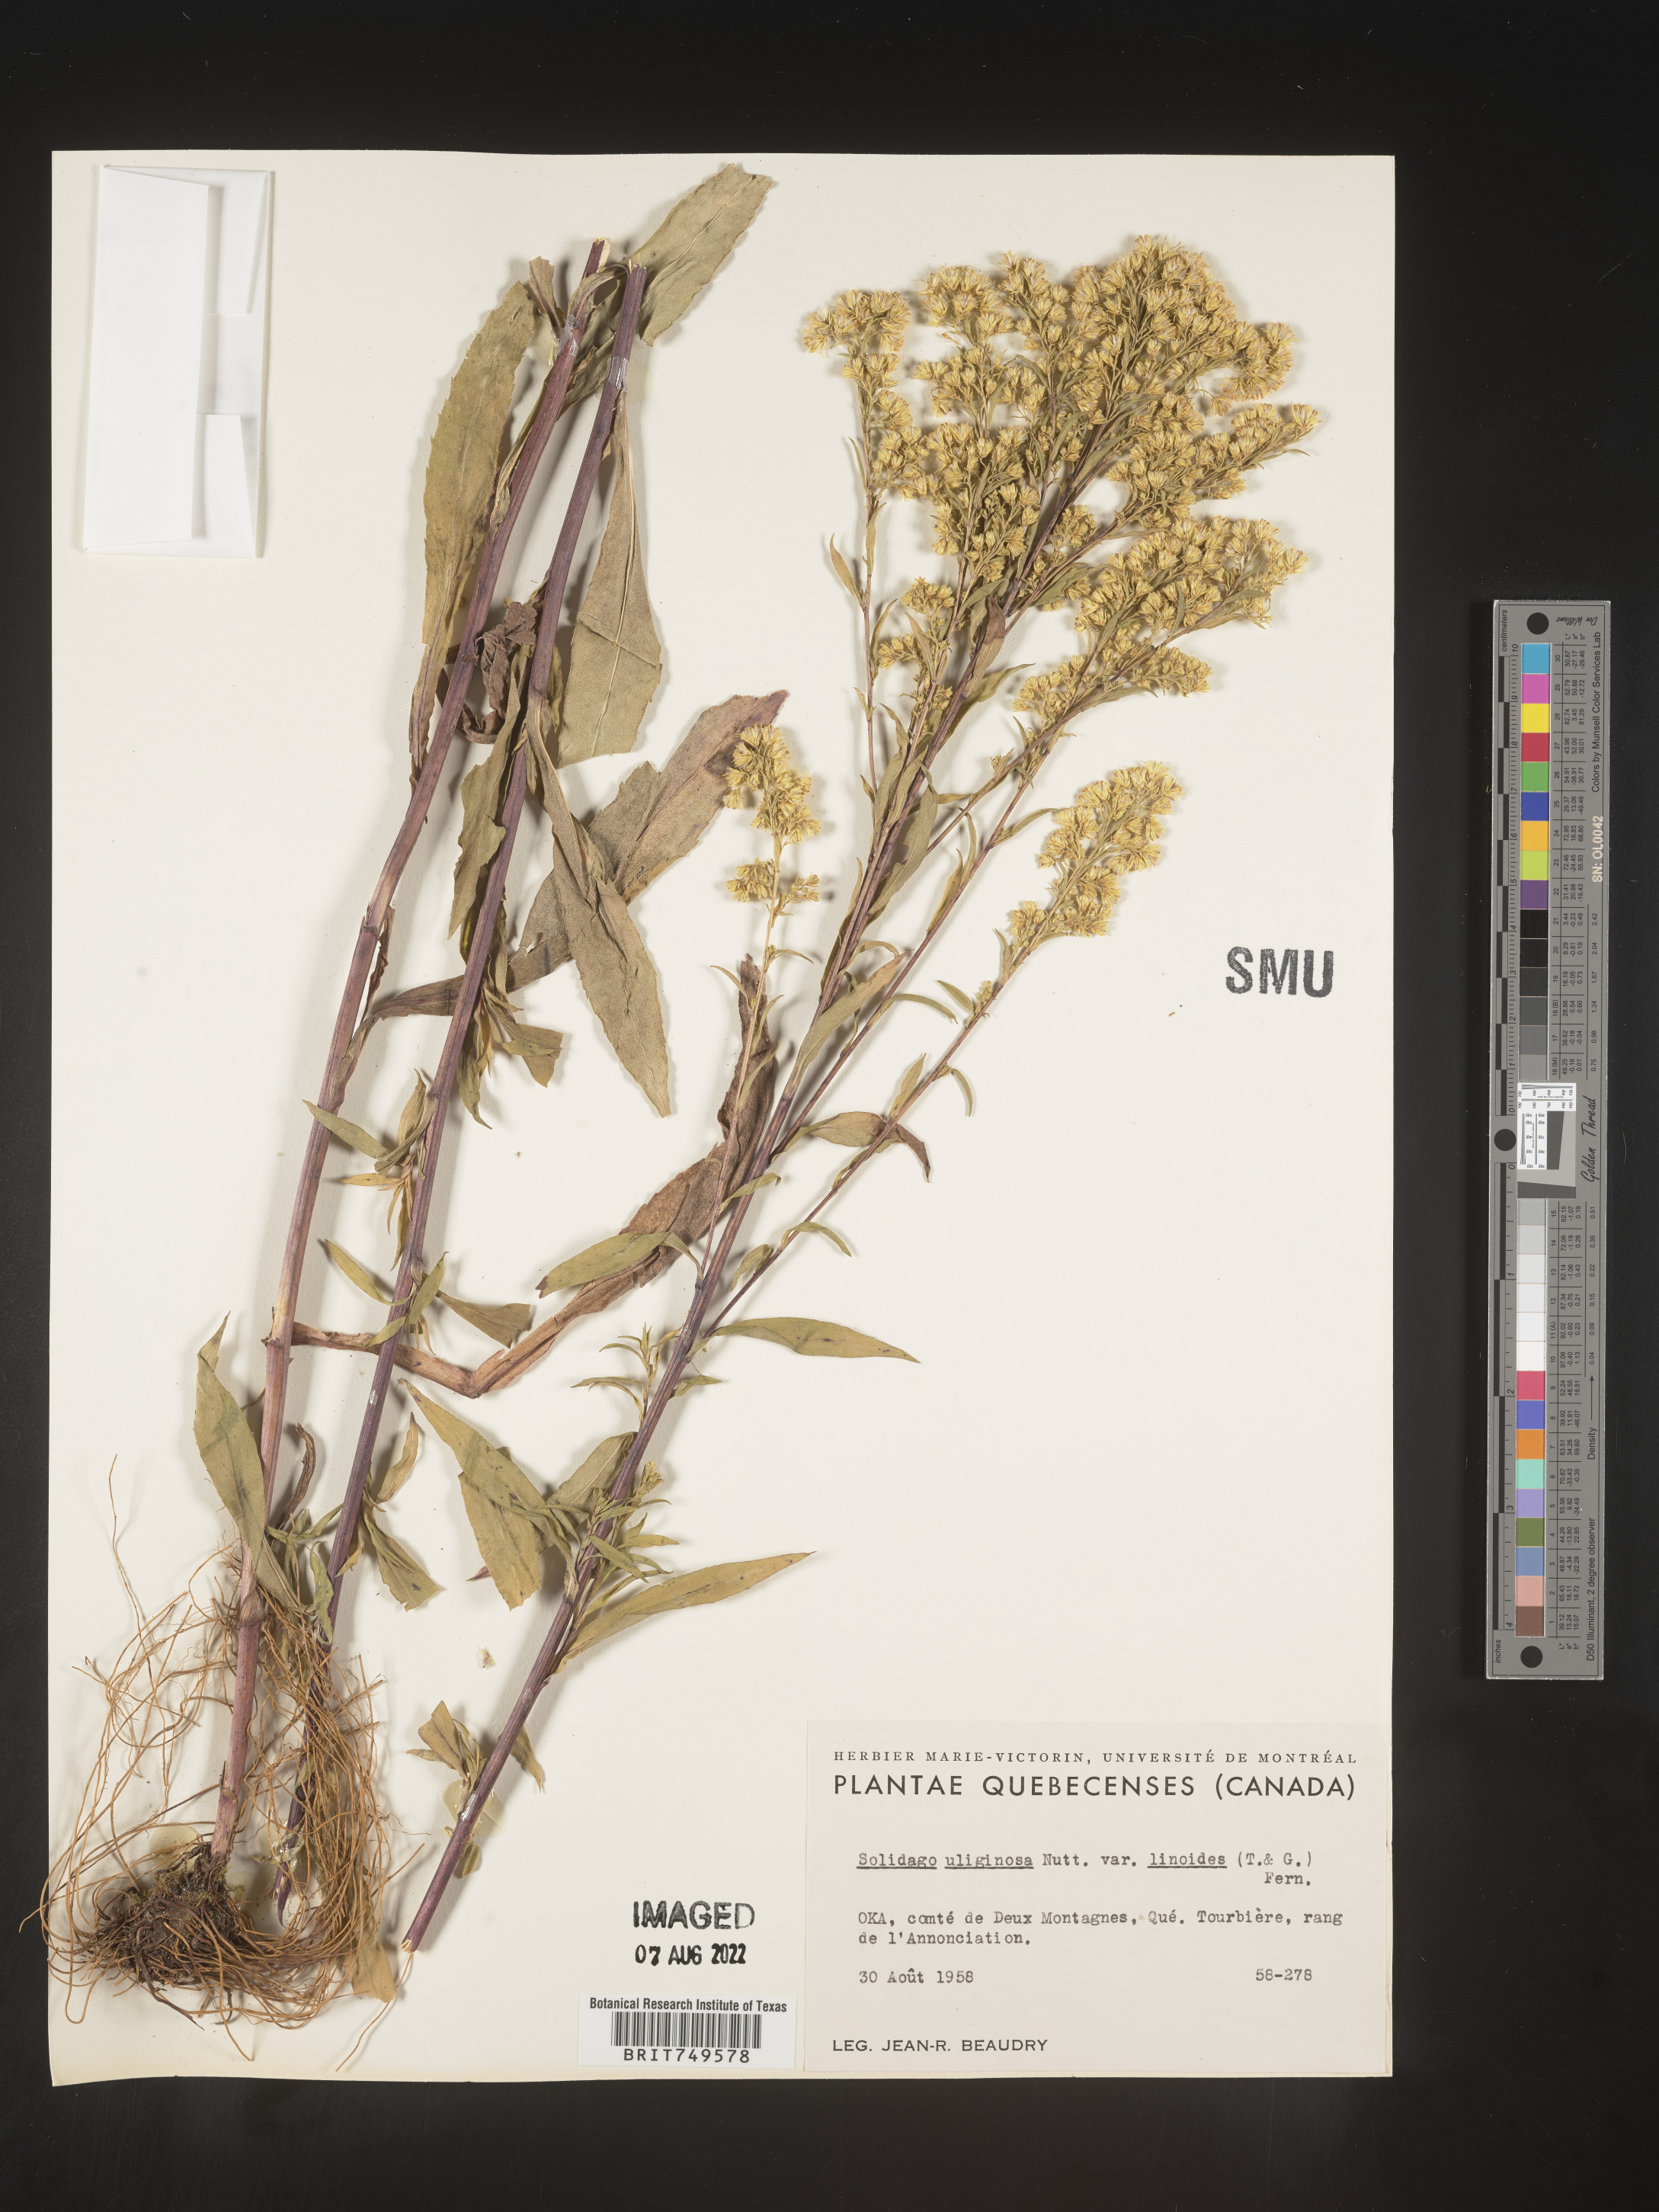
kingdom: Plantae
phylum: Tracheophyta
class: Magnoliopsida
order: Asterales
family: Asteraceae
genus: Solidago
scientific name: Solidago uliginosa
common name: Bog goldenrod
